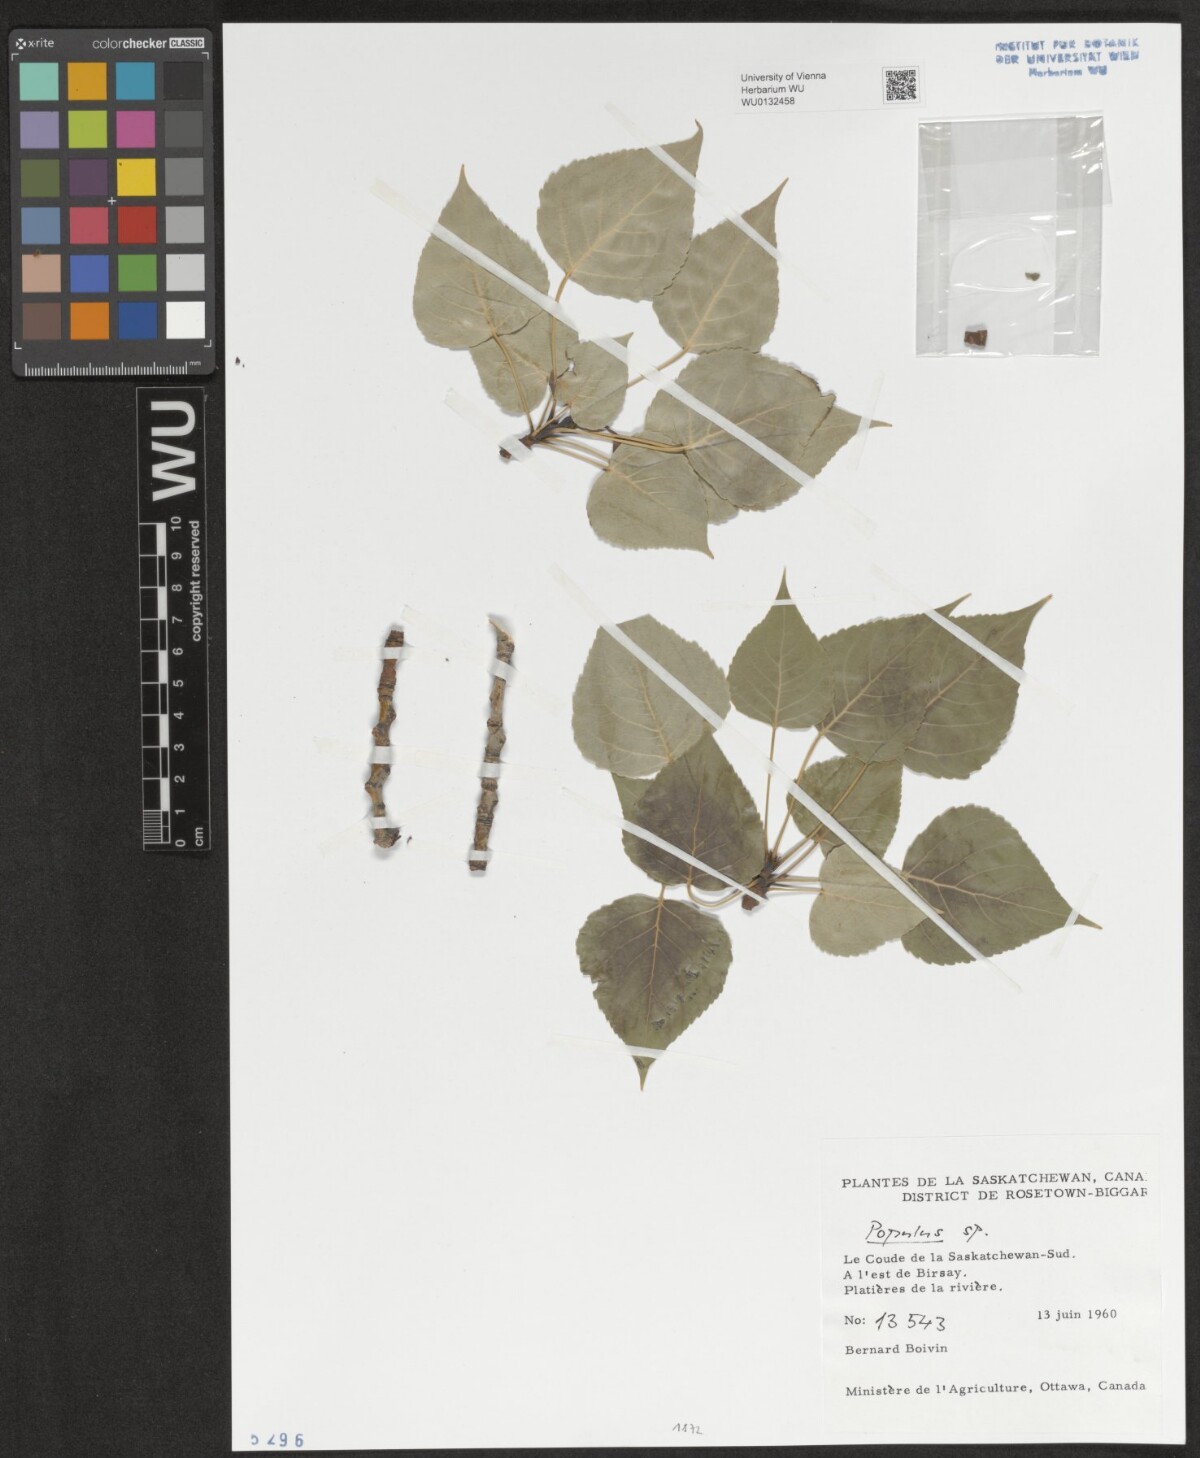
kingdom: Plantae
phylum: Tracheophyta
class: Magnoliopsida
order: Malpighiales
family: Salicaceae
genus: Populus
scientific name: Populus
